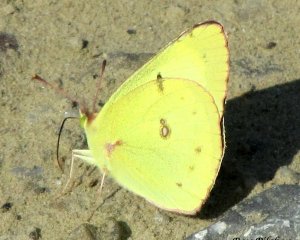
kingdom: Animalia
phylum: Arthropoda
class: Insecta
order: Lepidoptera
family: Pieridae
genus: Colias
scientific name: Colias eurytheme
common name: Orange Sulphur
